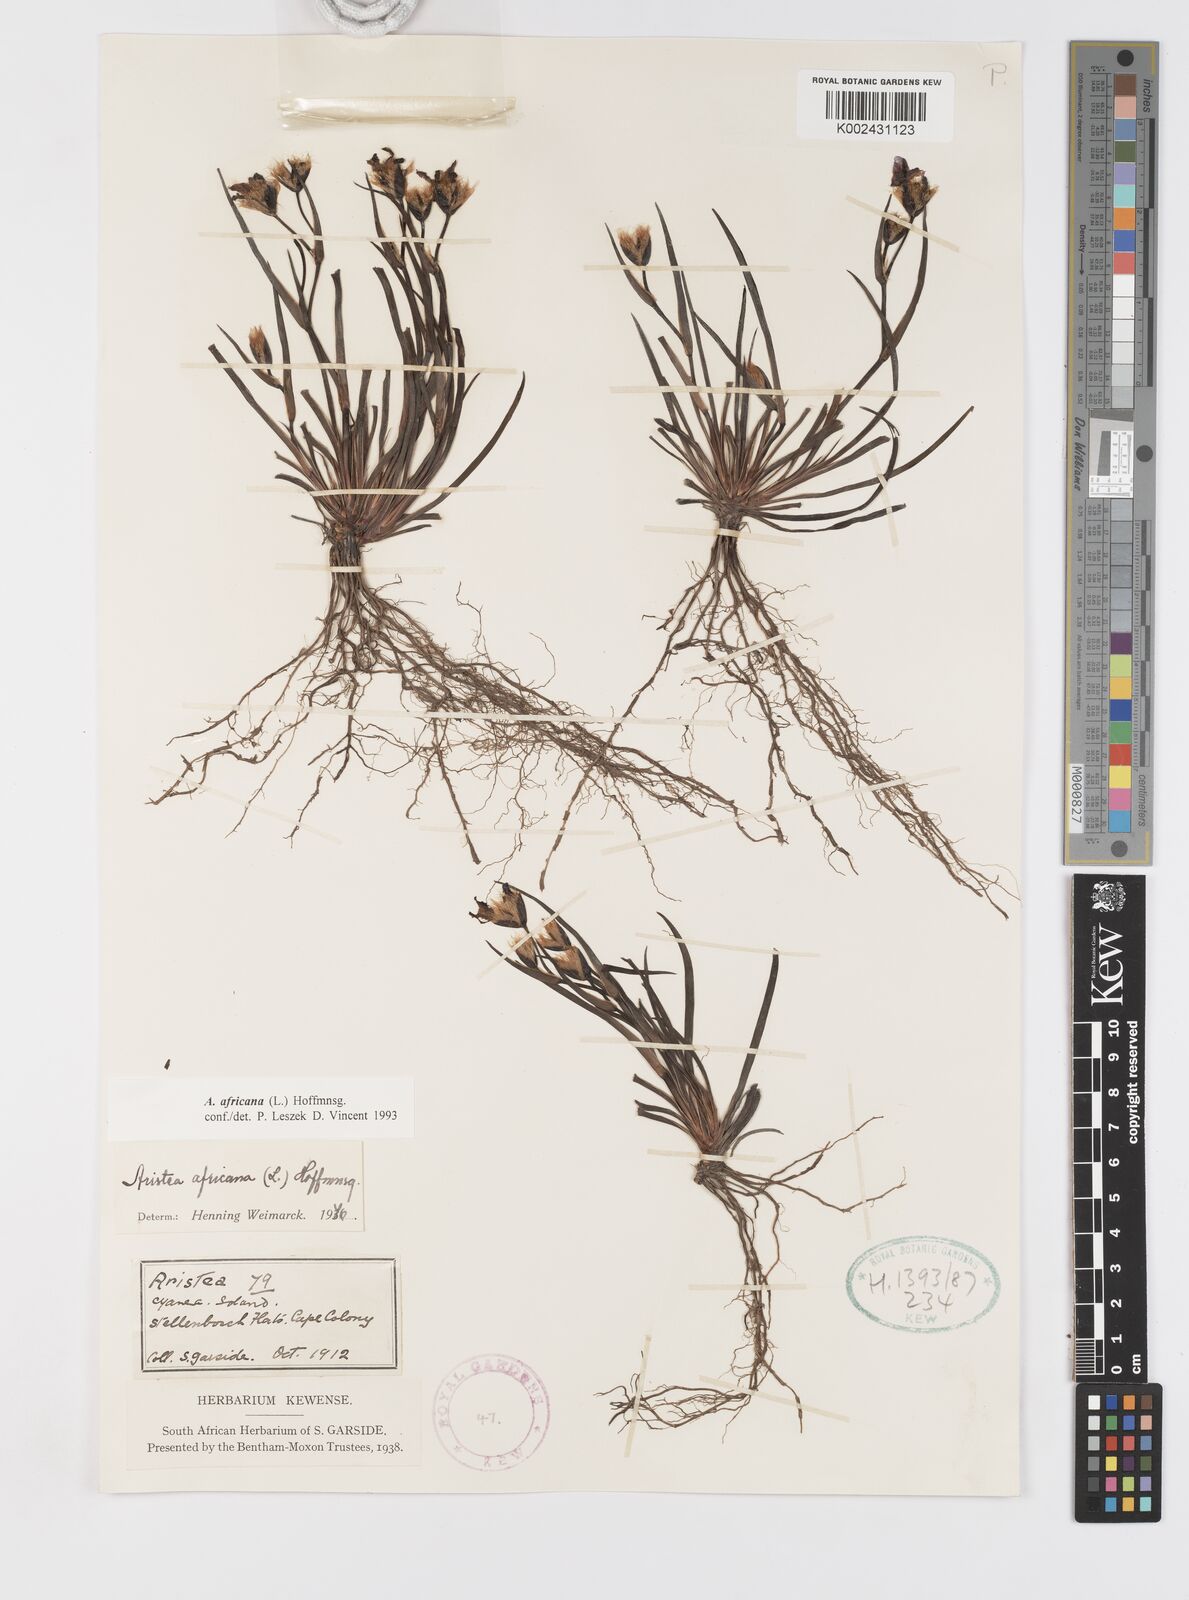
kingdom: Plantae
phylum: Tracheophyta
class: Liliopsida
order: Asparagales
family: Iridaceae
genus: Aristea
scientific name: Aristea africana
